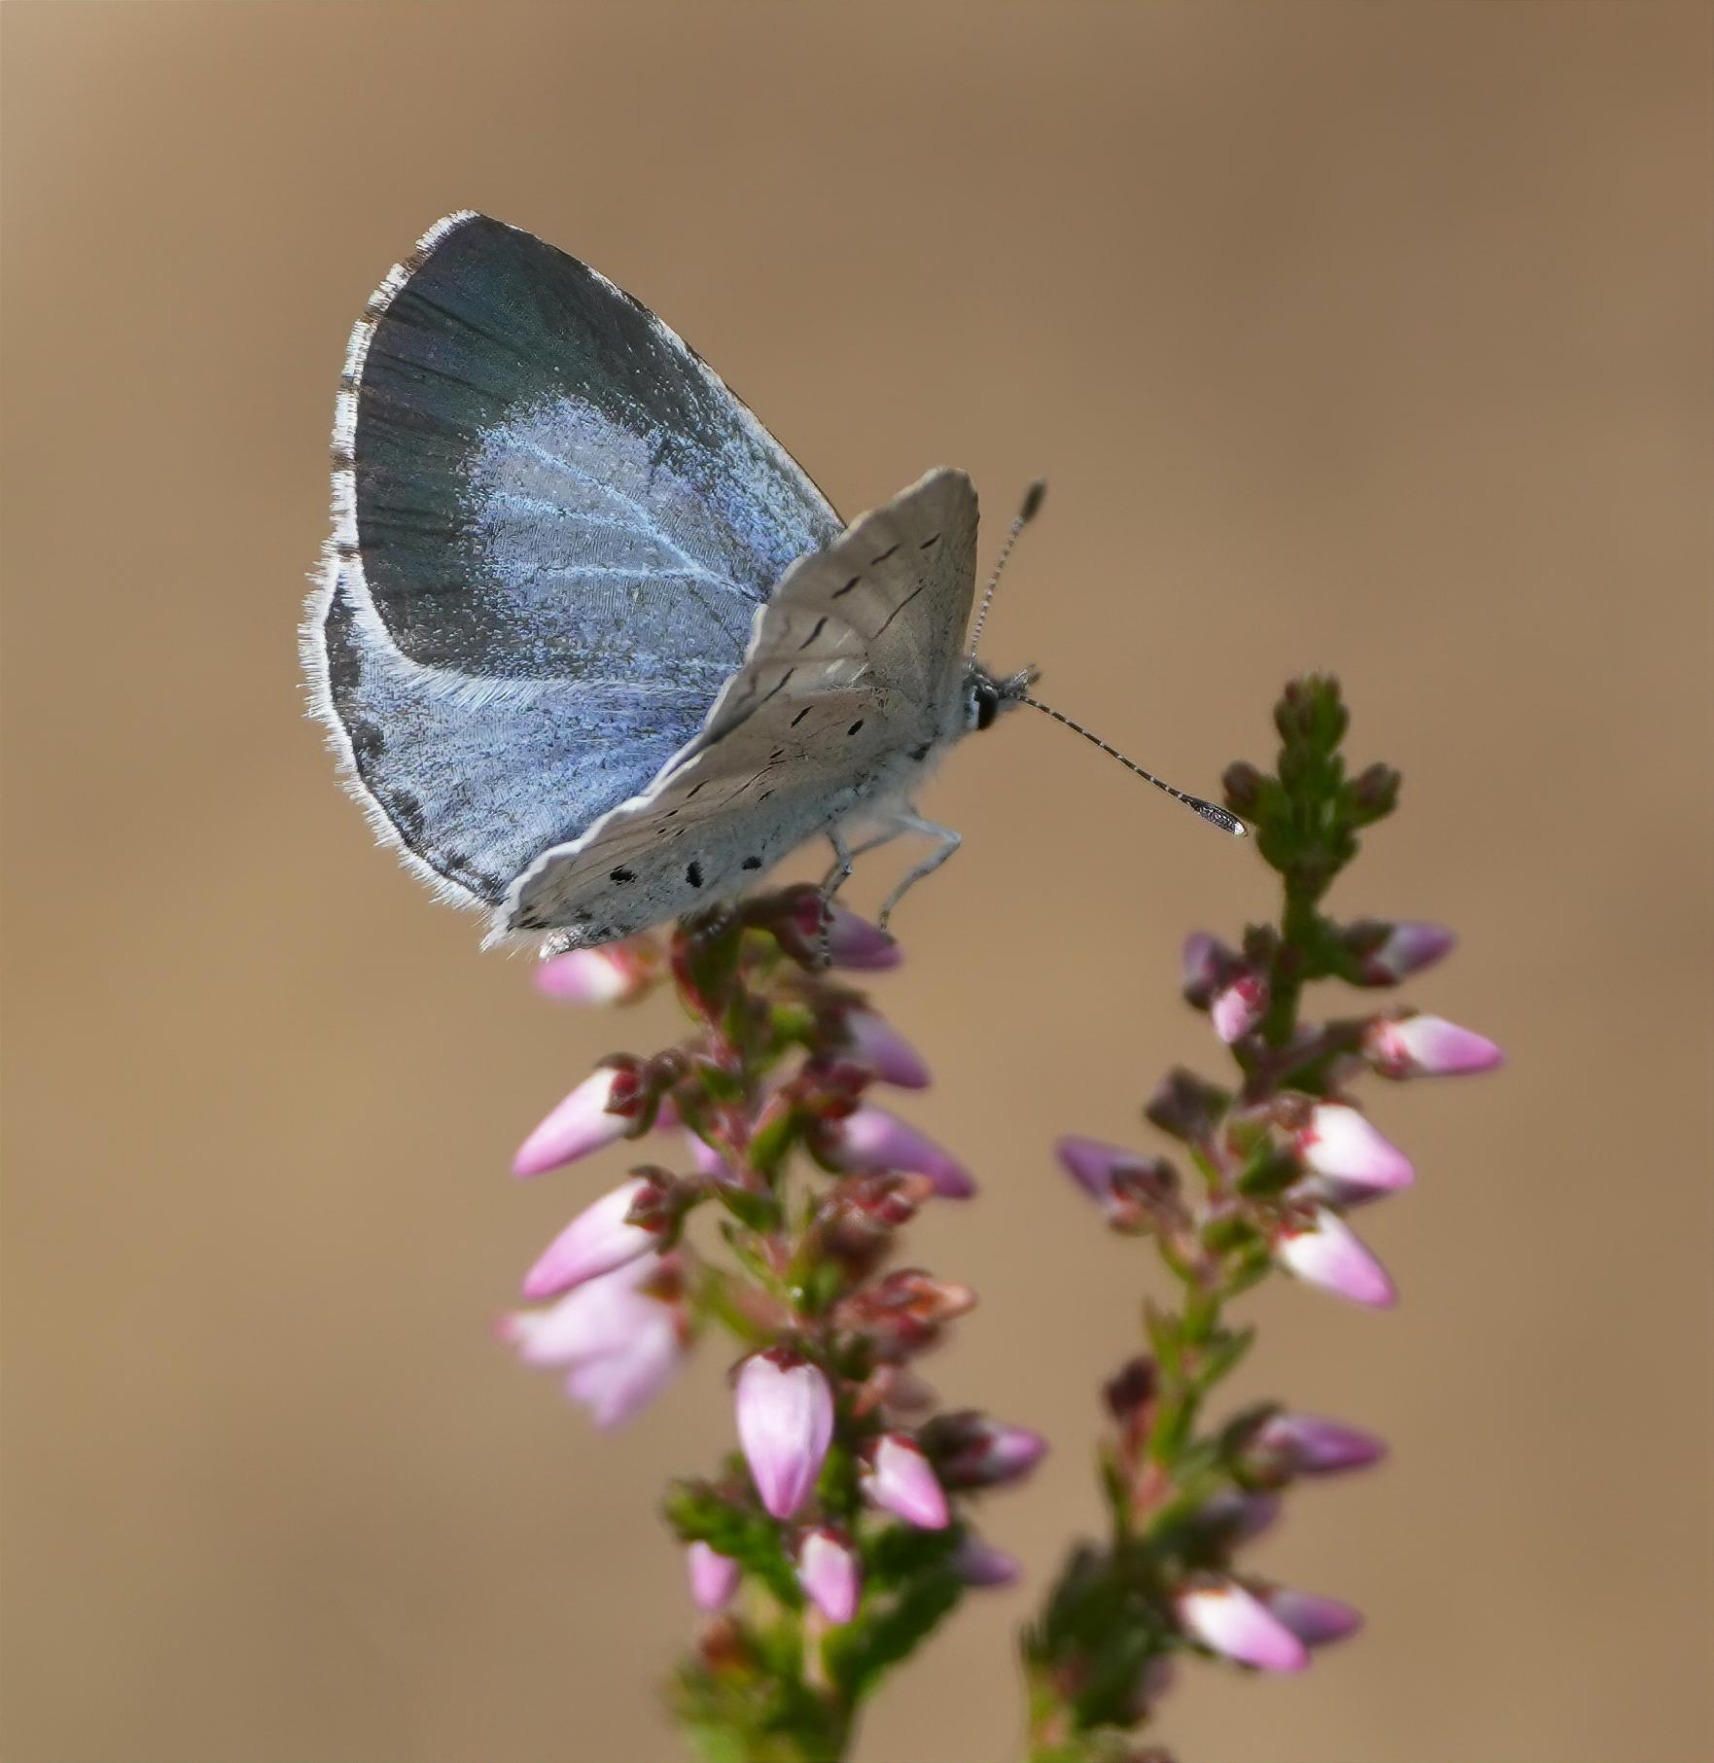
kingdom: Animalia
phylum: Arthropoda
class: Insecta
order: Lepidoptera
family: Lycaenidae
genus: Celastrina
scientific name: Celastrina argiolus
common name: Skovblåfugl
